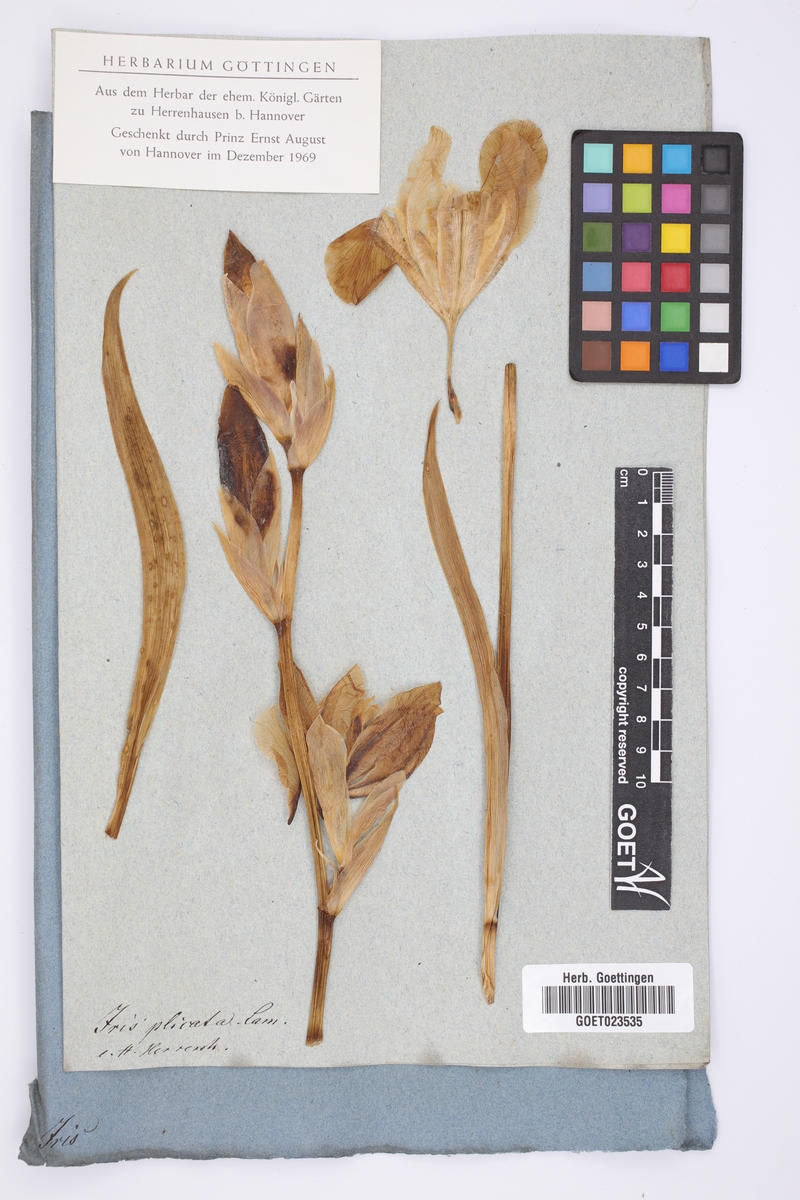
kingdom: Plantae
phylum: Tracheophyta
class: Liliopsida
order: Asparagales
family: Iridaceae
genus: Iris
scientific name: Iris pallida
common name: Sweet iris
